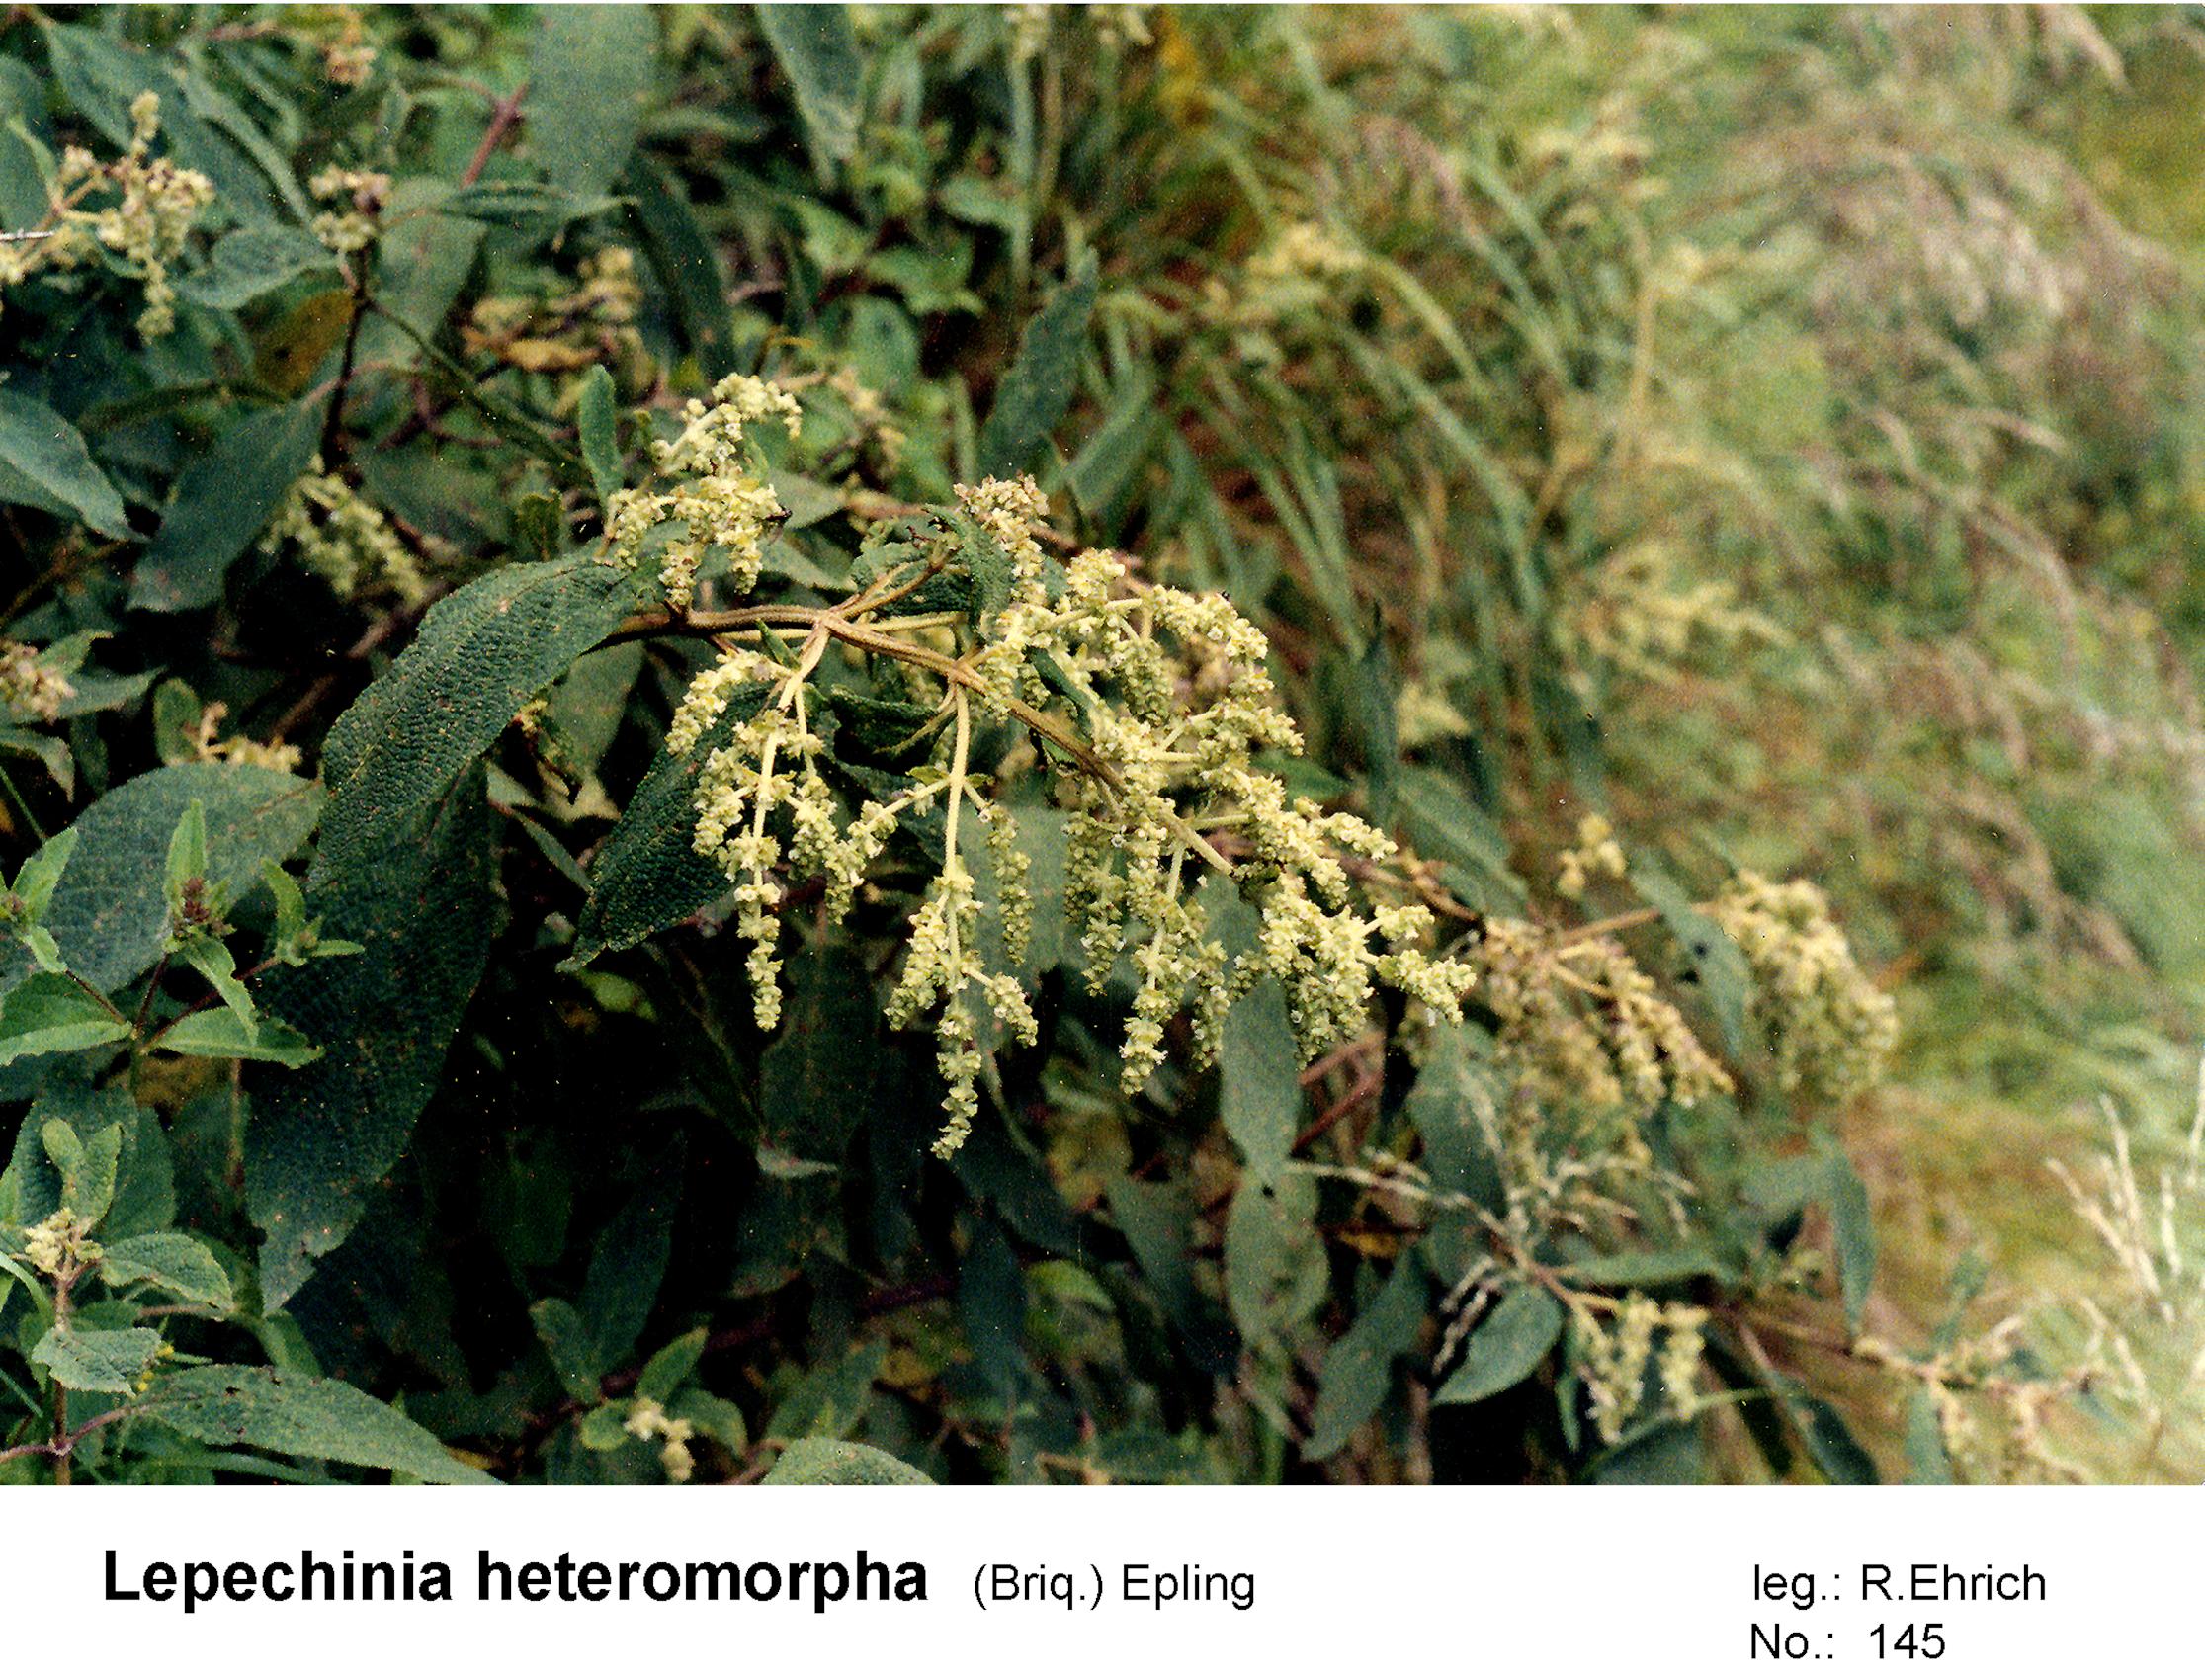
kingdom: Plantae
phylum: Tracheophyta
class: Magnoliopsida
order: Lamiales
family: Lamiaceae
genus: Lepechinia
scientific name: Lepechinia graveolens
